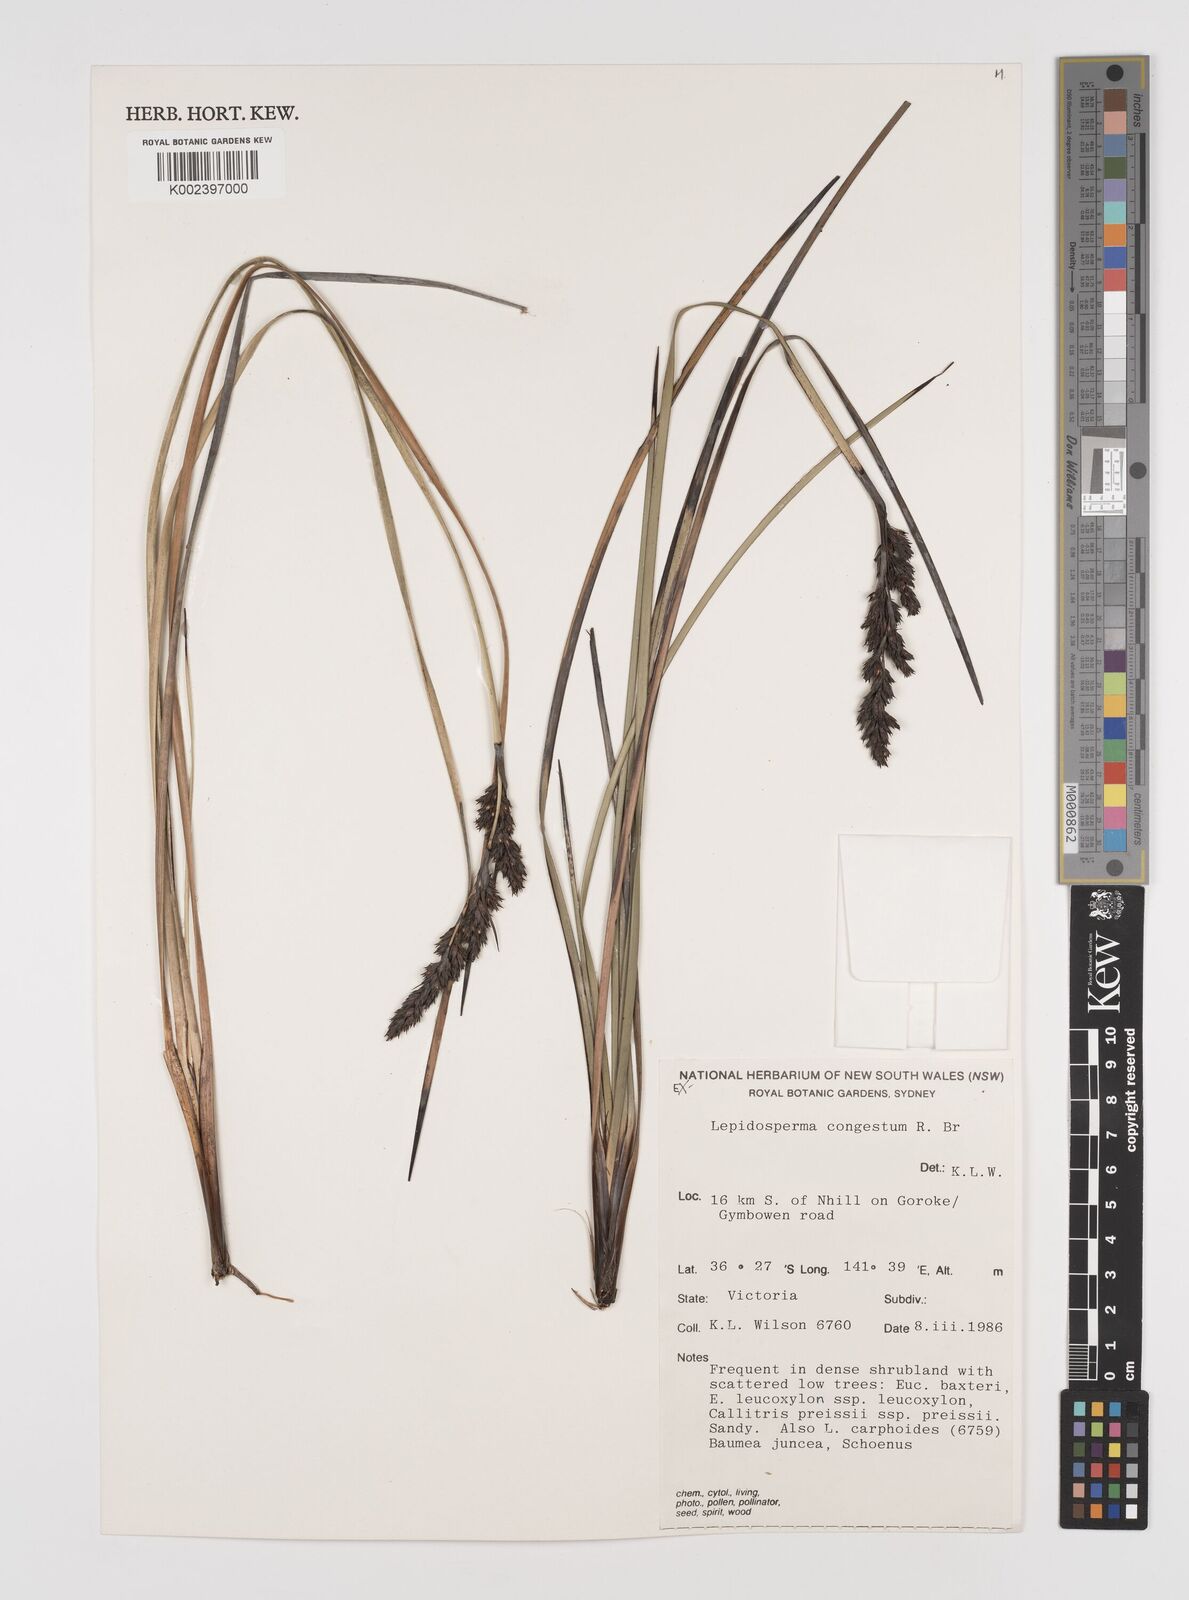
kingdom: Plantae
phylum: Tracheophyta
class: Liliopsida
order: Poales
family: Cyperaceae
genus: Lepidosperma
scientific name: Lepidosperma congestum
